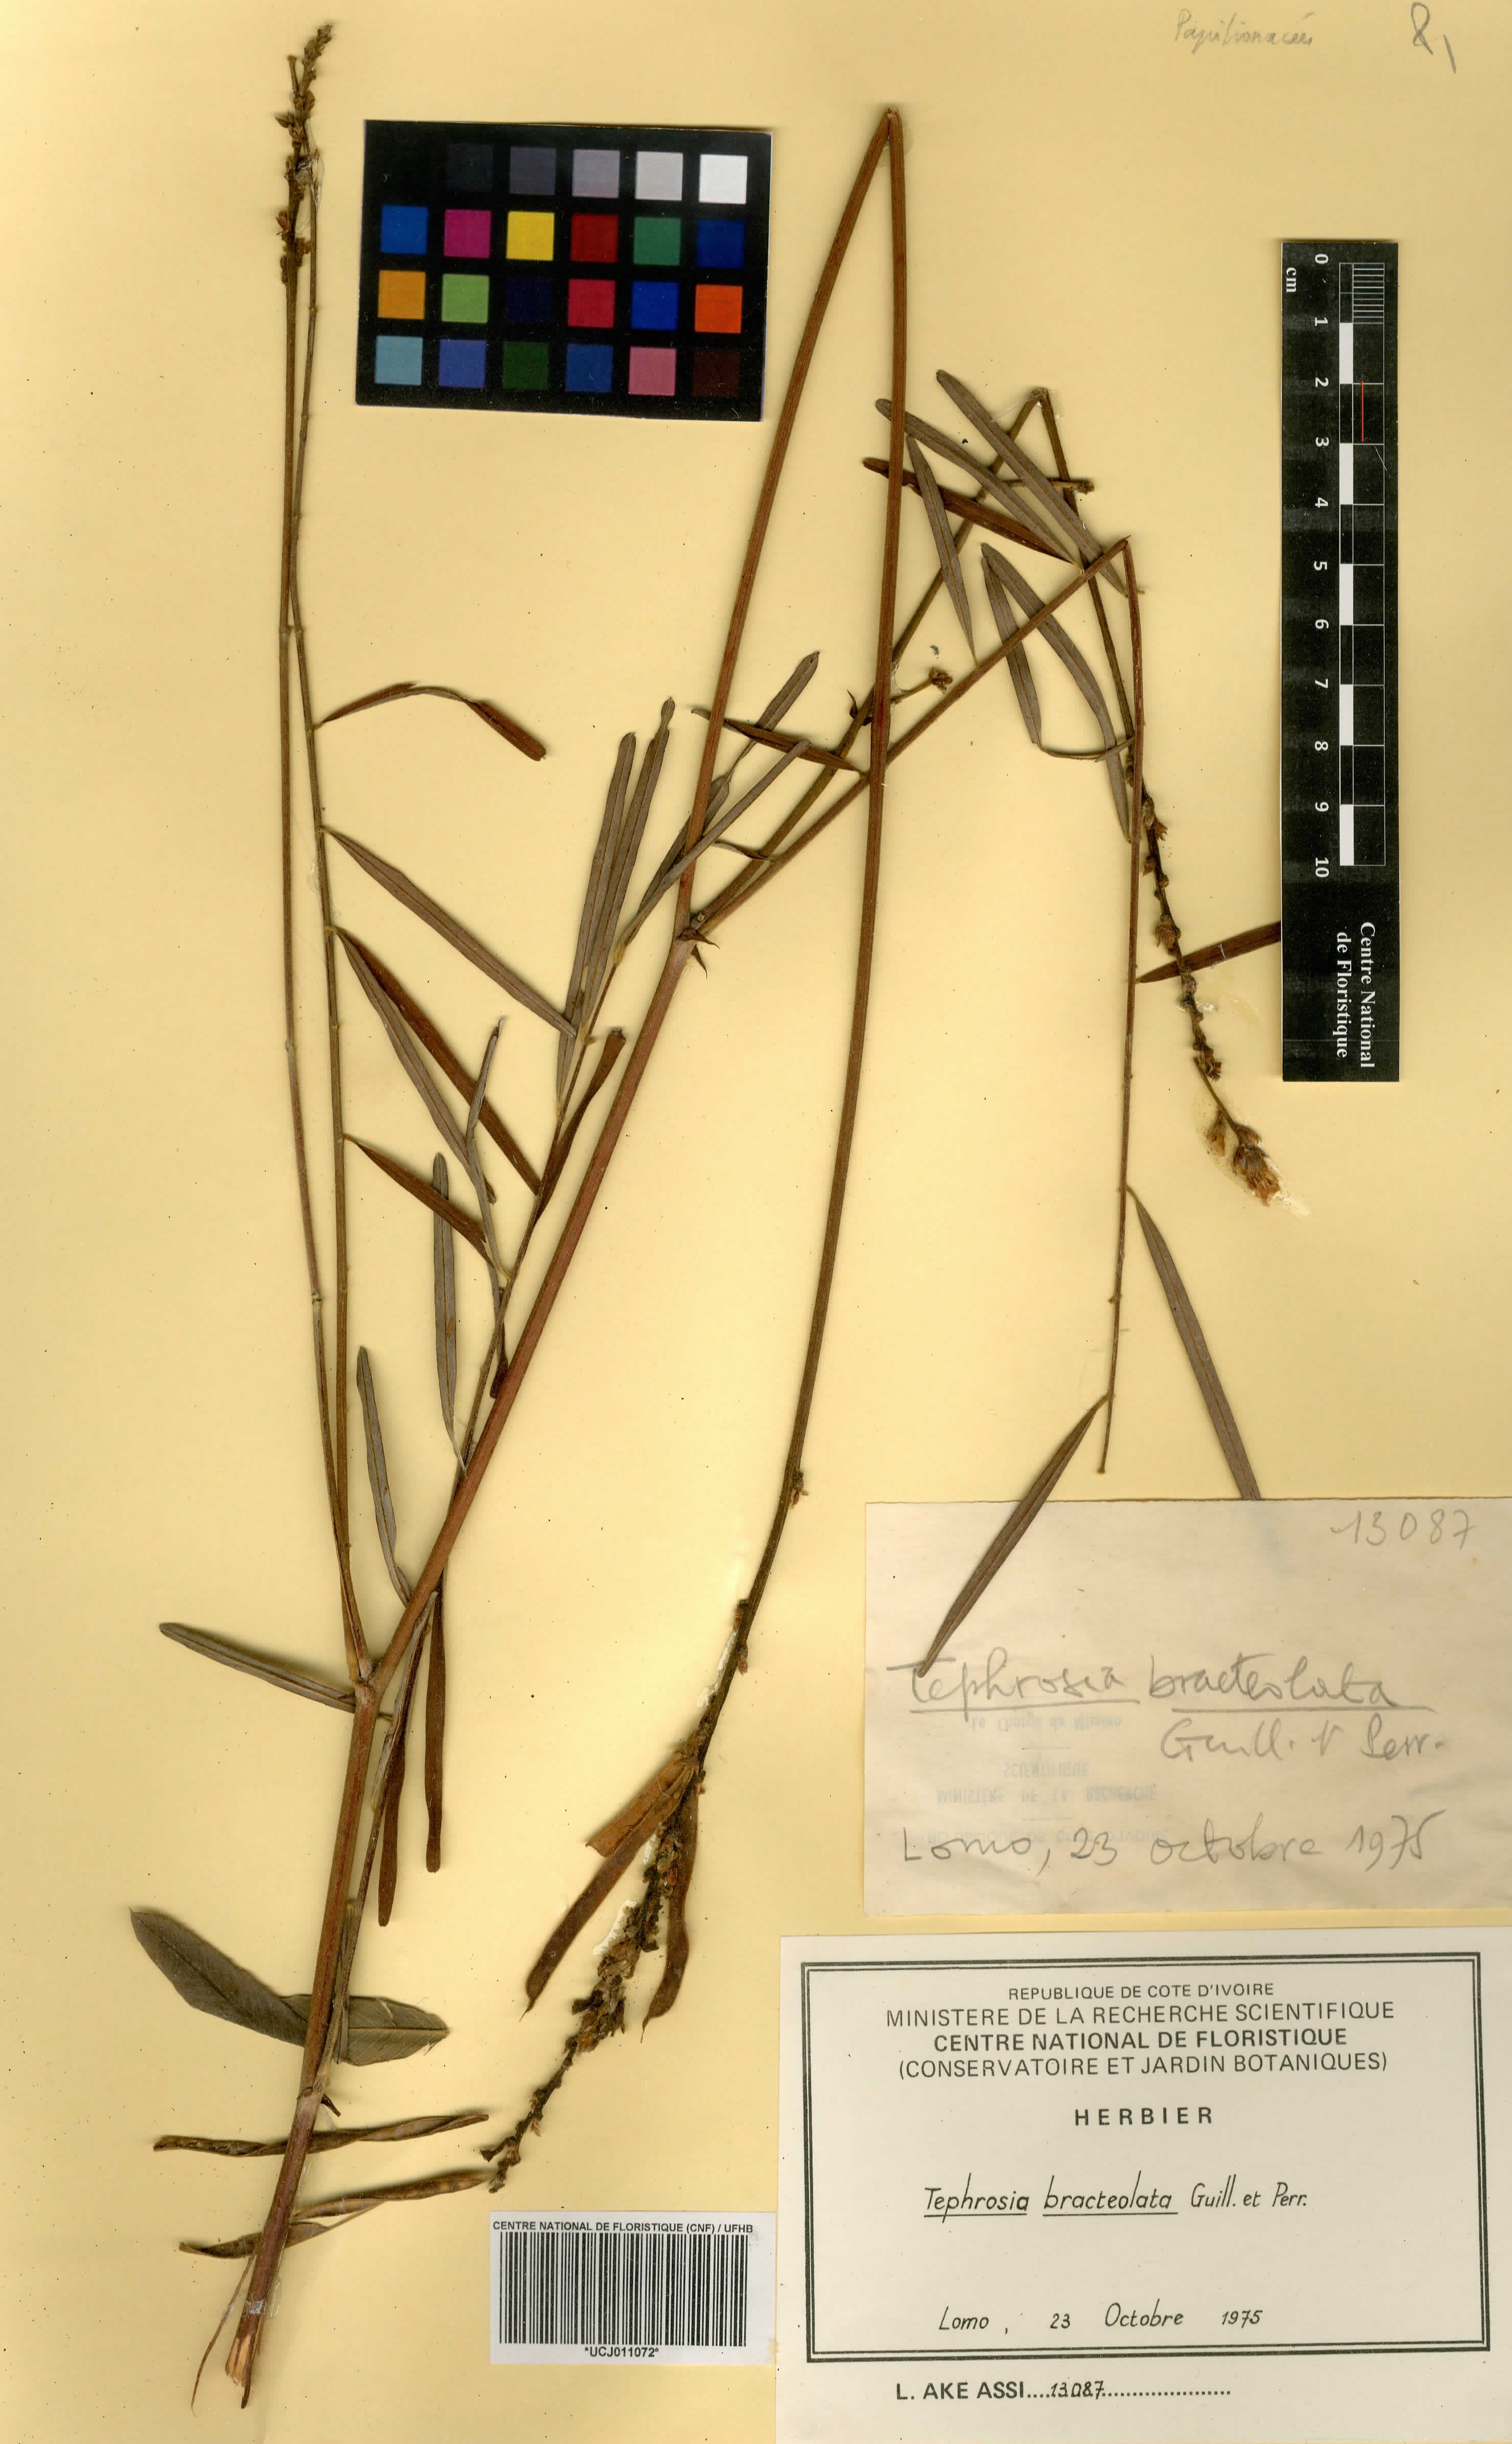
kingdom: Plantae
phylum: Tracheophyta
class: Magnoliopsida
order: Fabales
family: Fabaceae
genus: Tephrosia
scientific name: Tephrosia bracteolata
